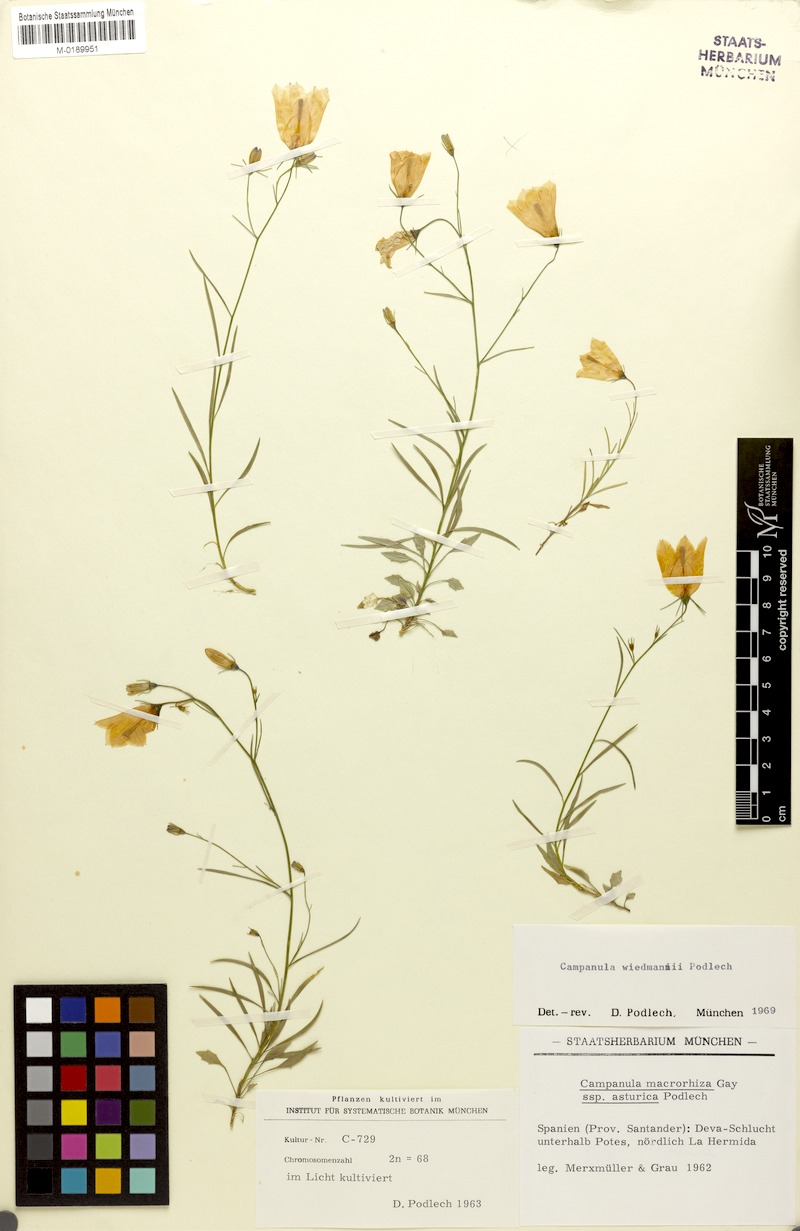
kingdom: Plantae
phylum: Tracheophyta
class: Magnoliopsida
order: Asterales
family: Campanulaceae
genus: Campanula
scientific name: Campanula rotundifolia
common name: Harebell
